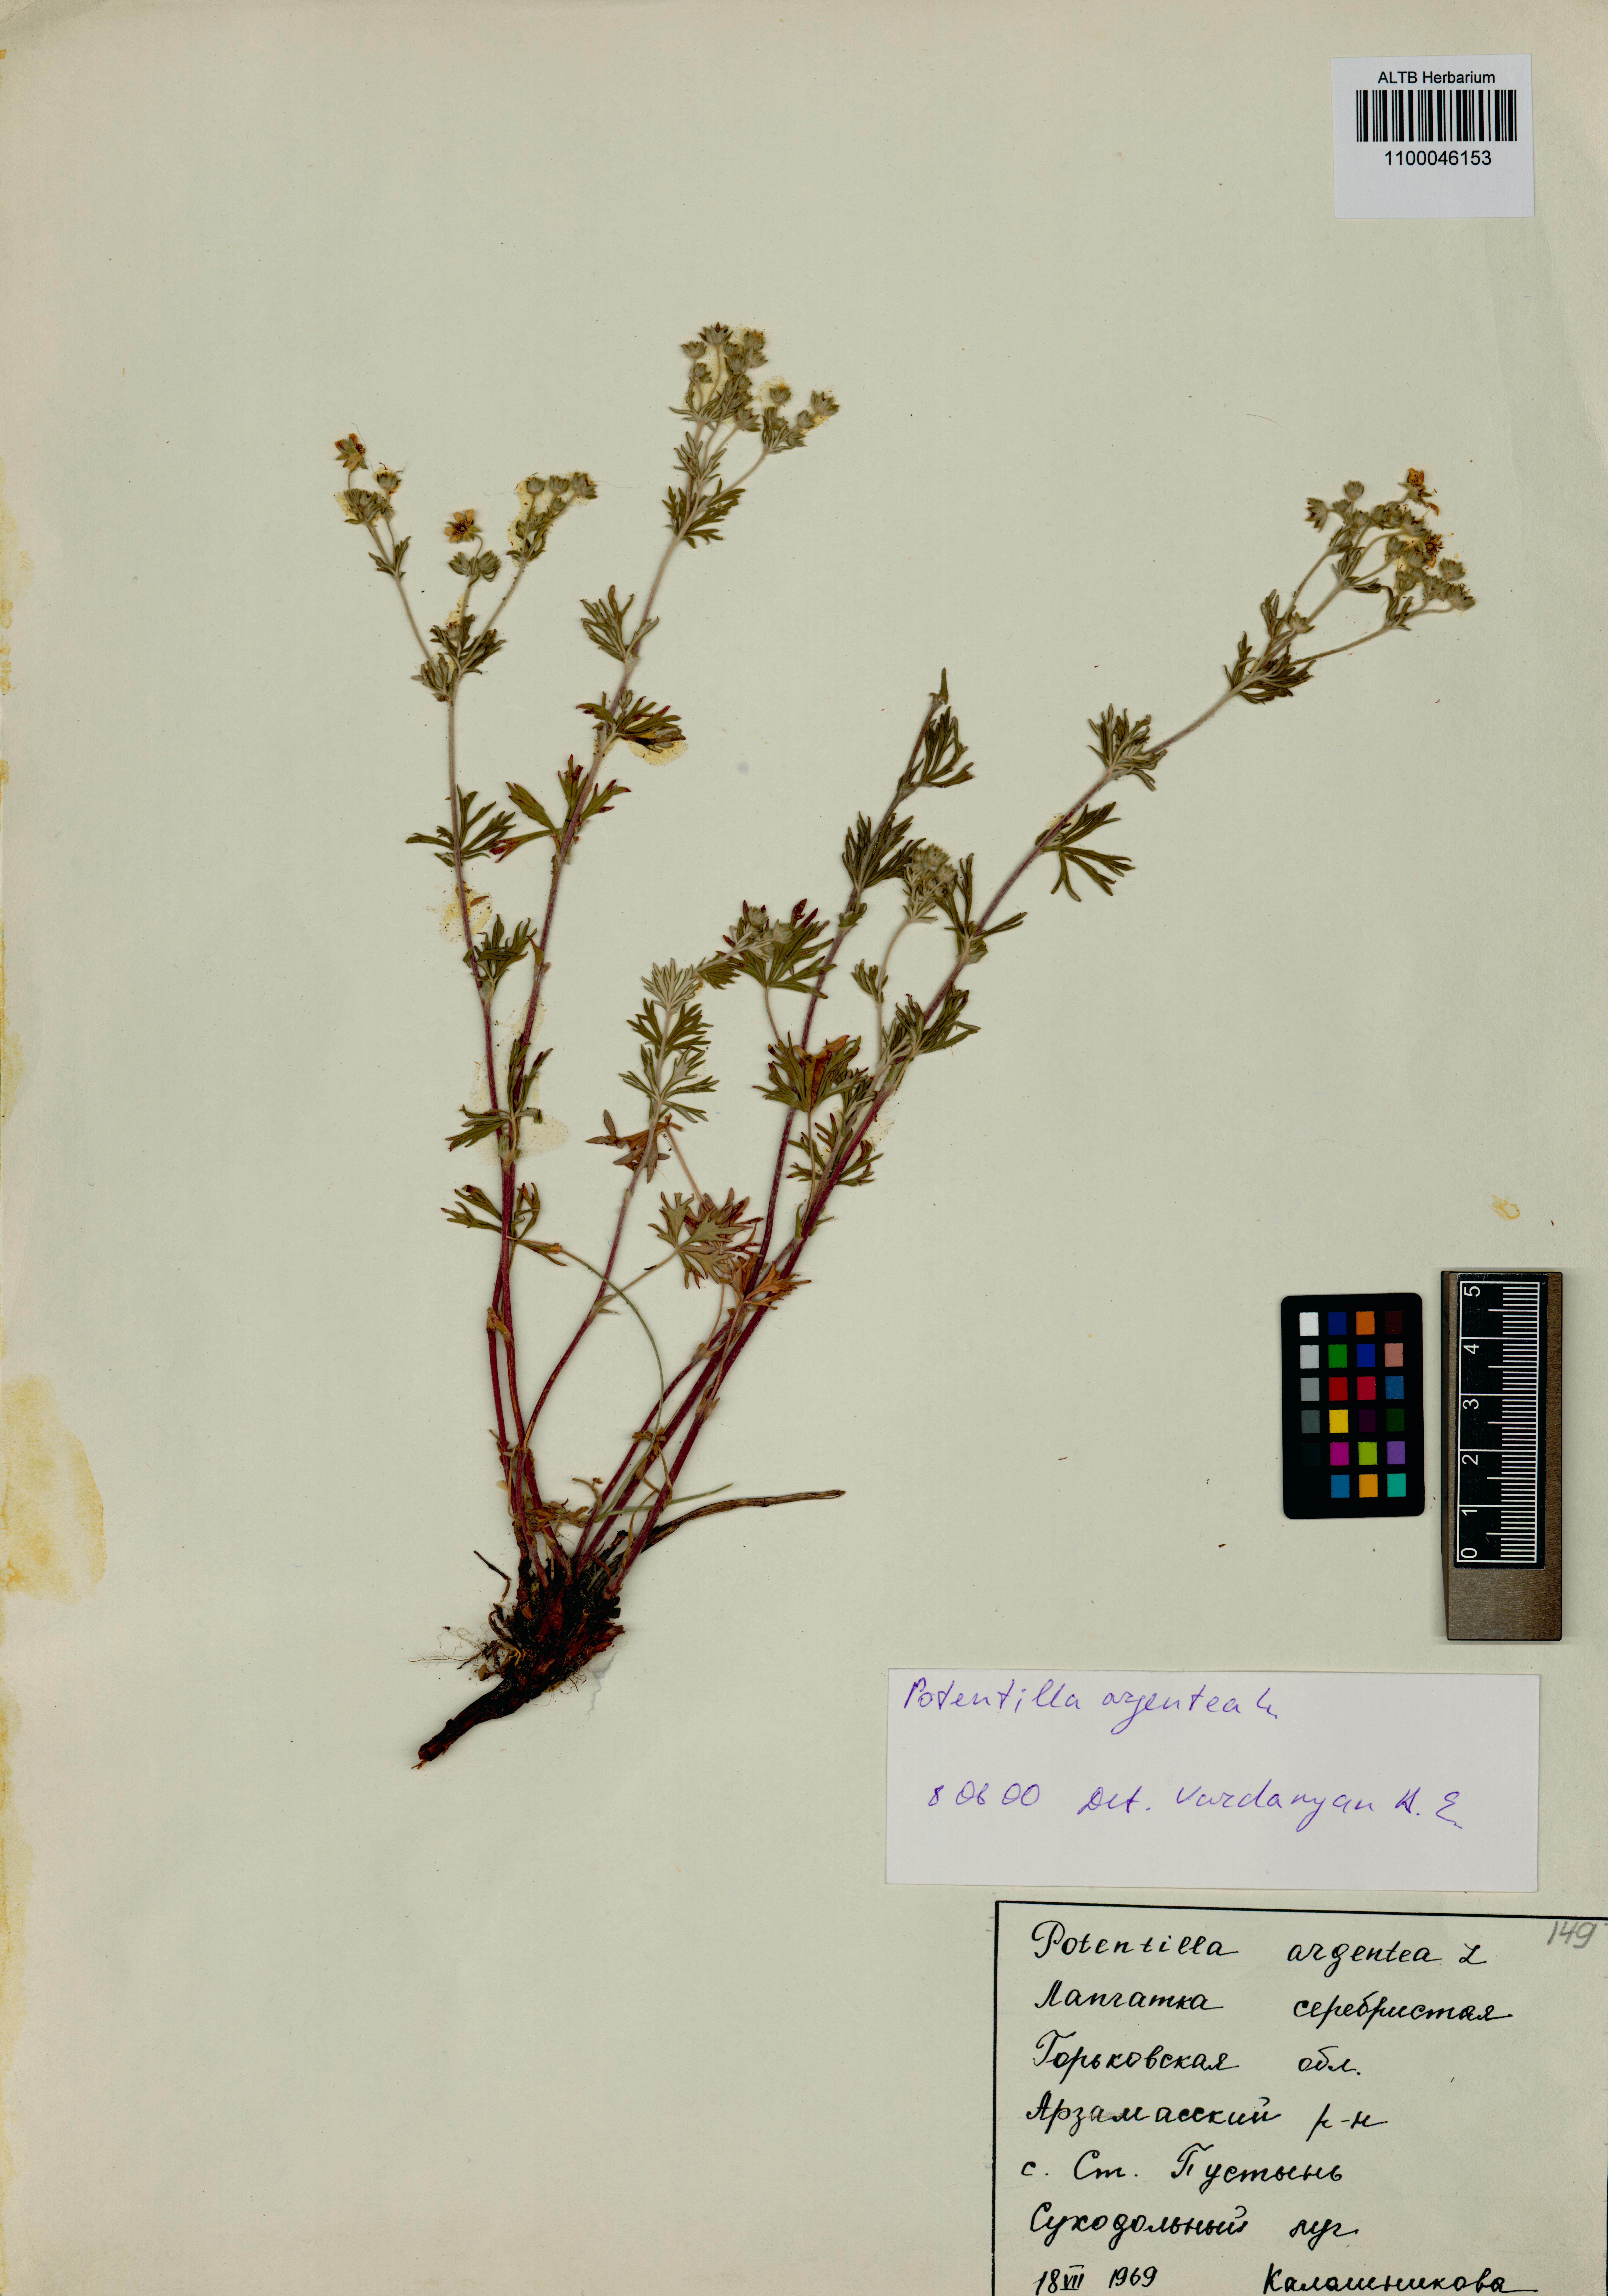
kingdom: Plantae
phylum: Tracheophyta
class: Magnoliopsida
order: Rosales
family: Rosaceae
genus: Potentilla
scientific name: Potentilla argentea
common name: Hoary cinquefoil
